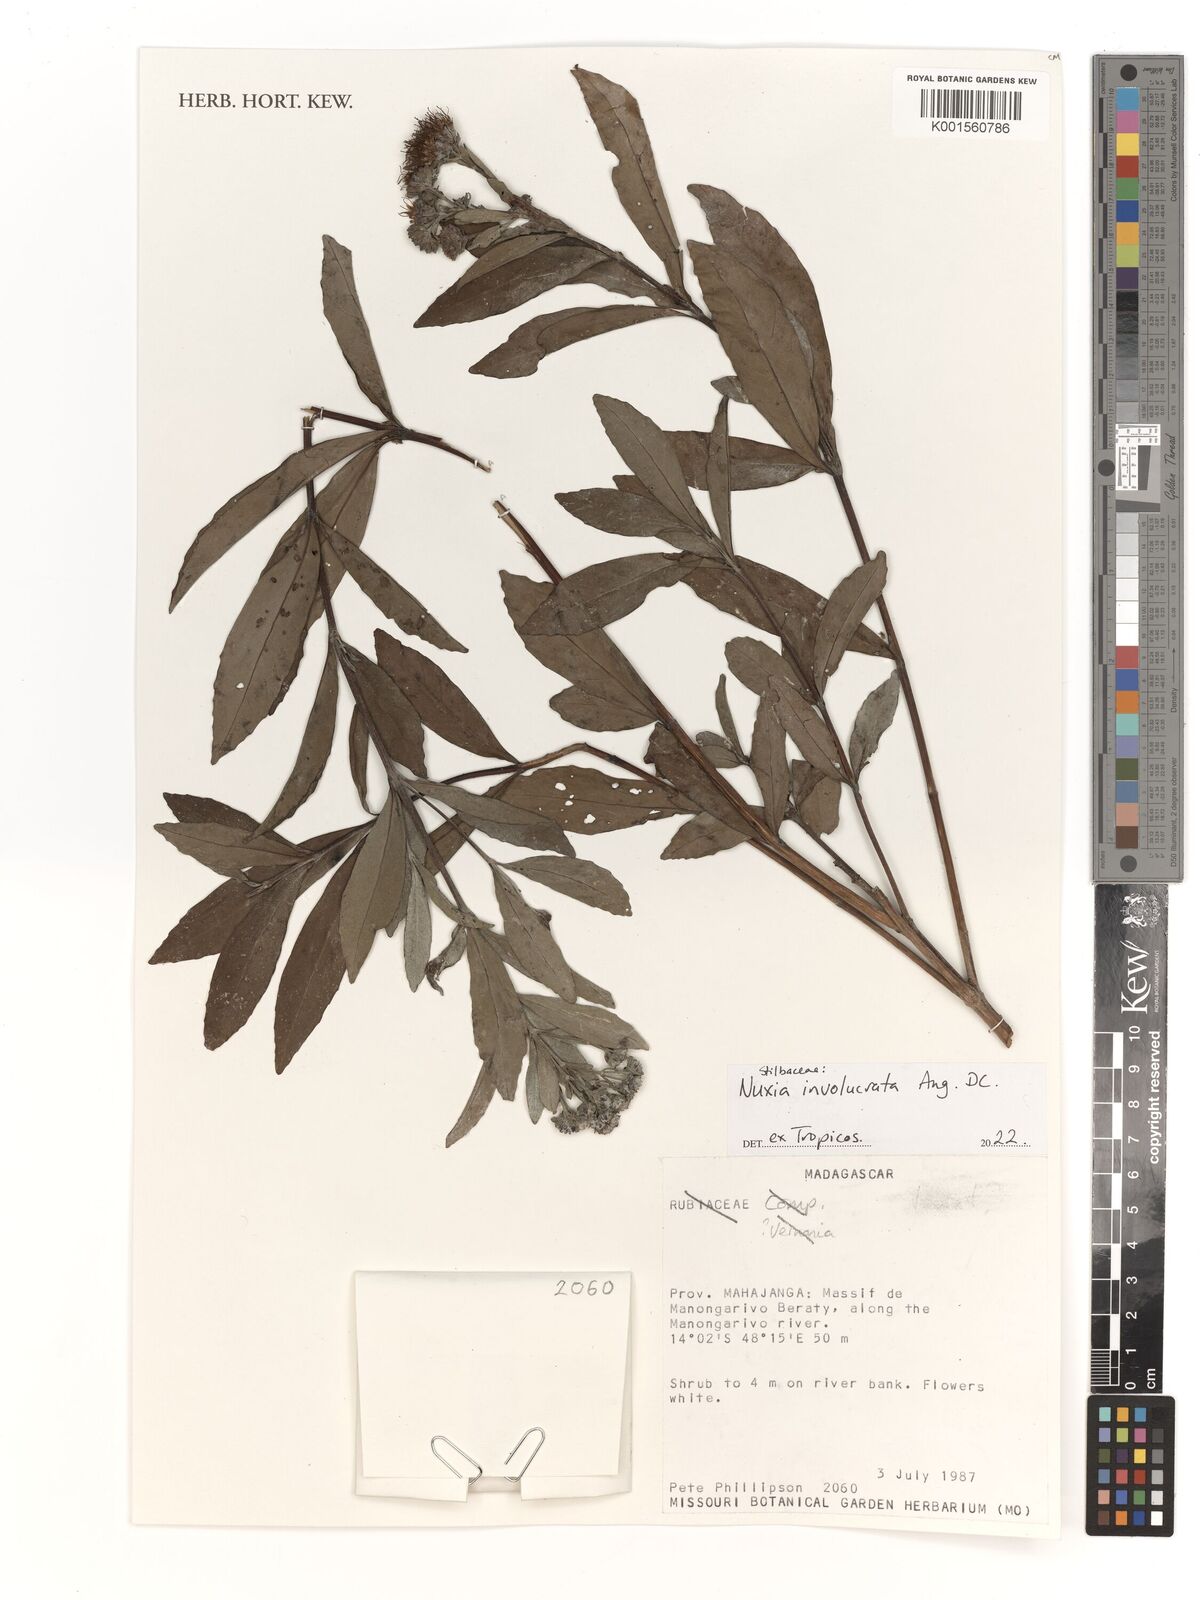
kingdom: Plantae
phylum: Tracheophyta
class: Magnoliopsida
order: Lamiales
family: Stilbaceae
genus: Nuxia
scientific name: Nuxia involucrata
